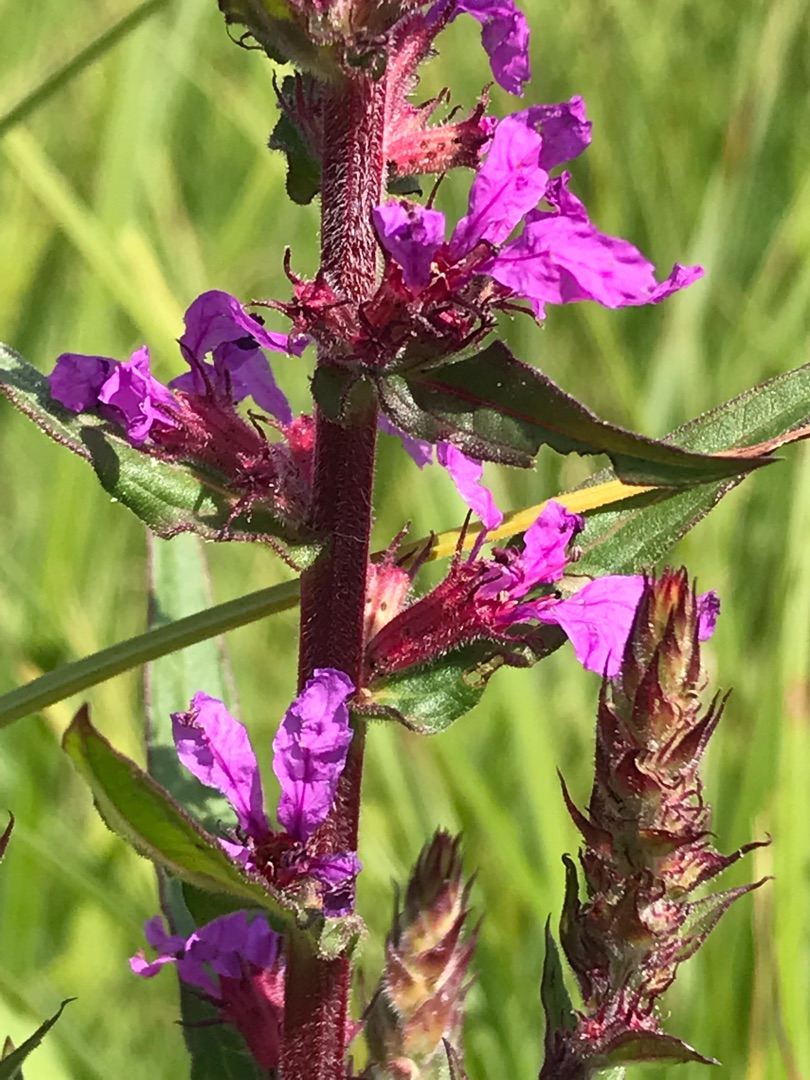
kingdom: Plantae
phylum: Tracheophyta
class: Magnoliopsida
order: Myrtales
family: Lythraceae
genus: Lythrum
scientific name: Lythrum salicaria
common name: Kattehale
